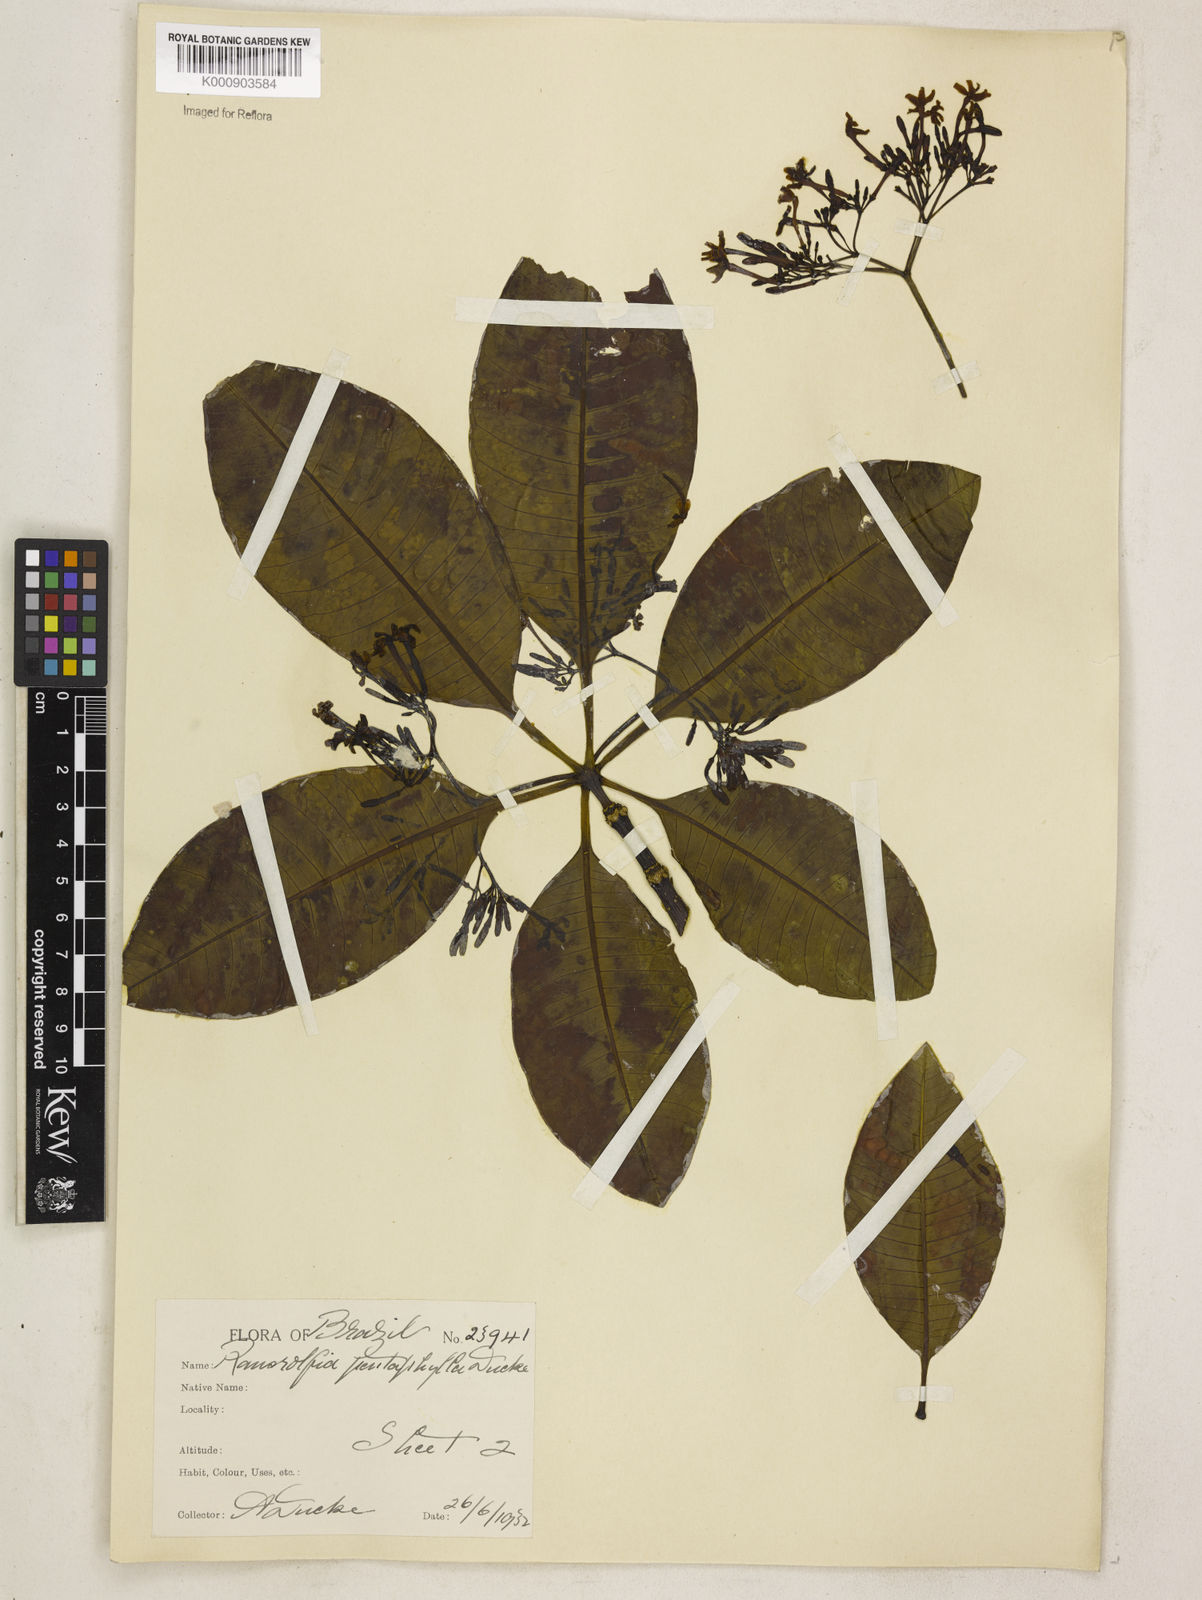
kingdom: Plantae
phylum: Tracheophyta
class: Magnoliopsida
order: Gentianales
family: Apocynaceae
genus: Rauvolfia
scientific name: Rauvolfia pentaphylla
